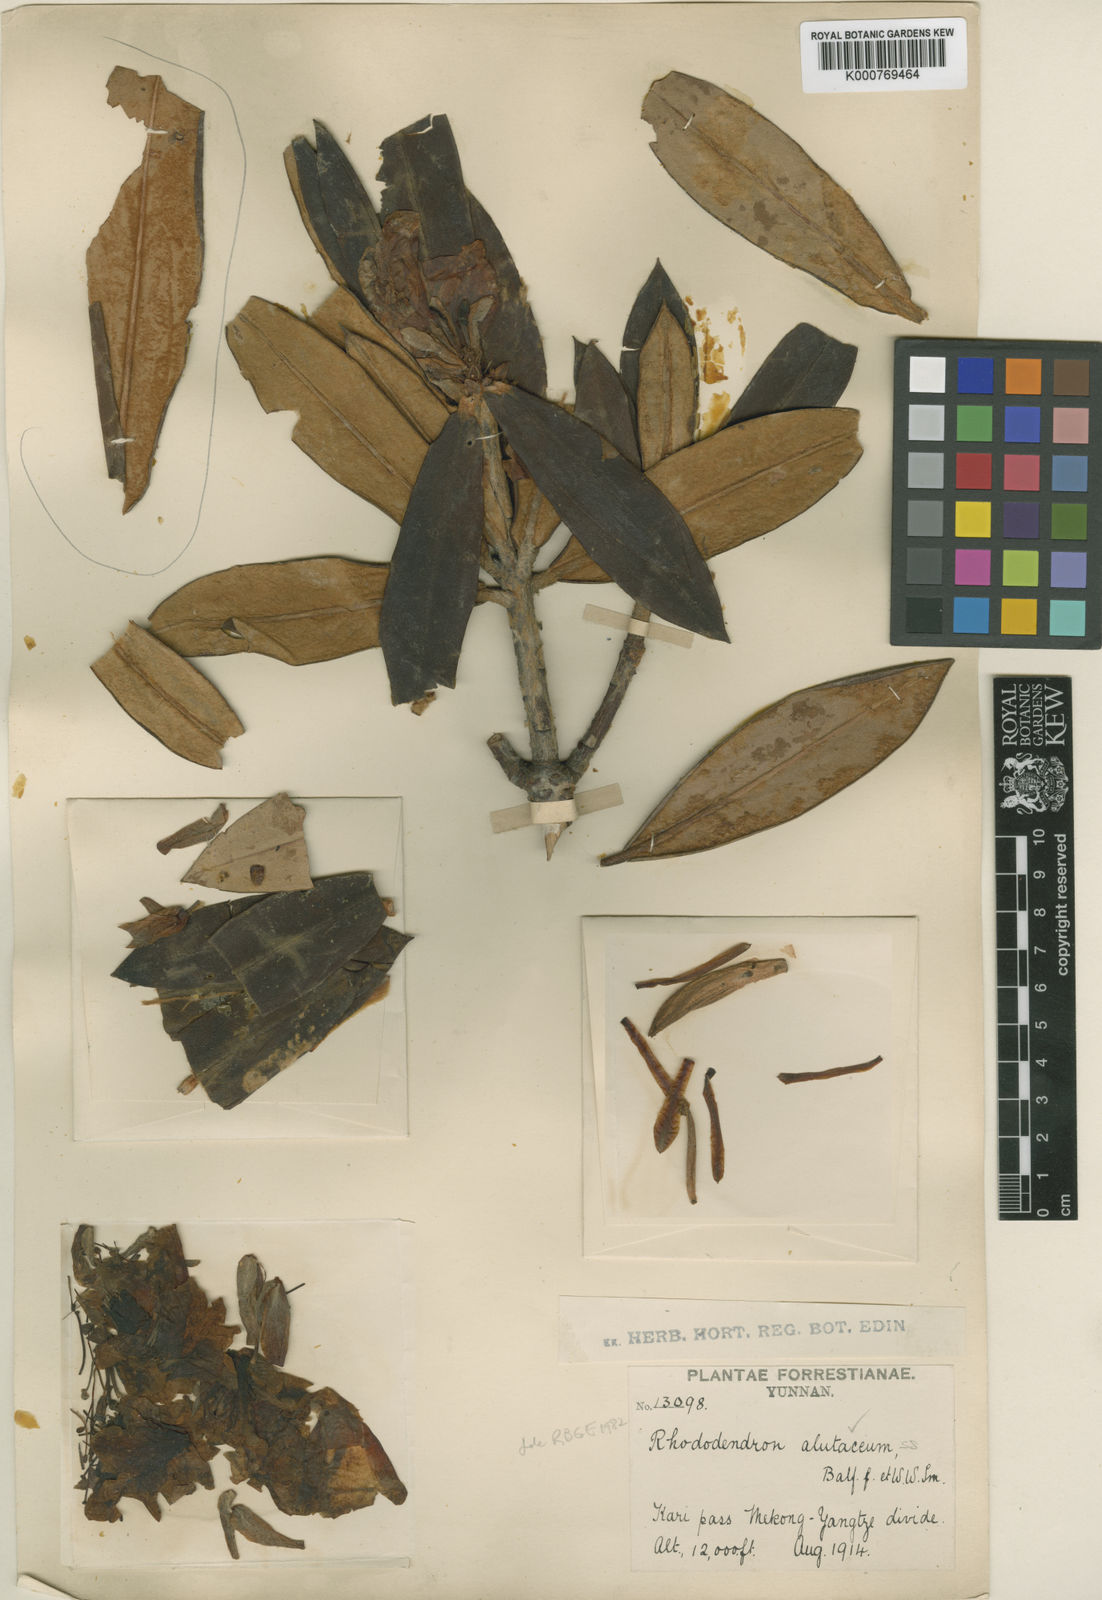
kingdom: Plantae
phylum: Tracheophyta
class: Magnoliopsida
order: Ericales
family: Ericaceae
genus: Rhododendron
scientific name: Rhododendron alutaceum
